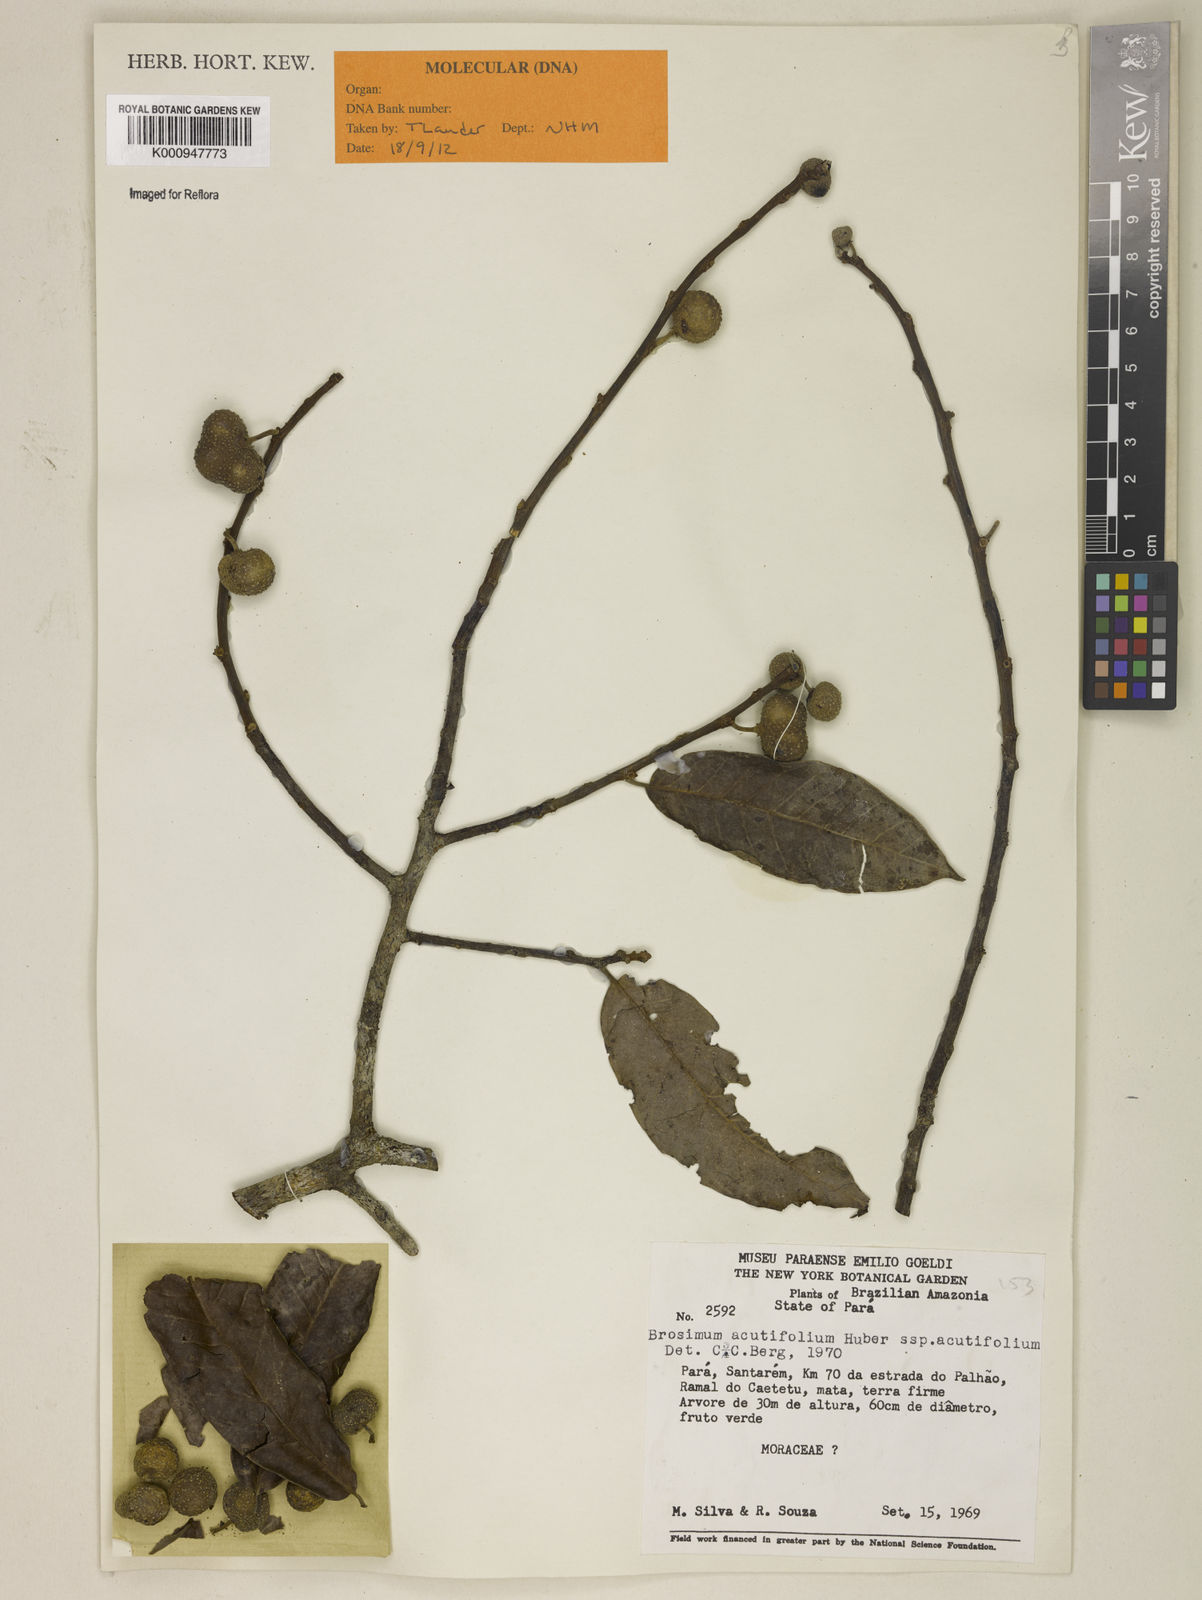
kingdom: Plantae
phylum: Tracheophyta
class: Magnoliopsida
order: Rosales
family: Moraceae
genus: Brosimum
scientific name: Brosimum acutifolium
